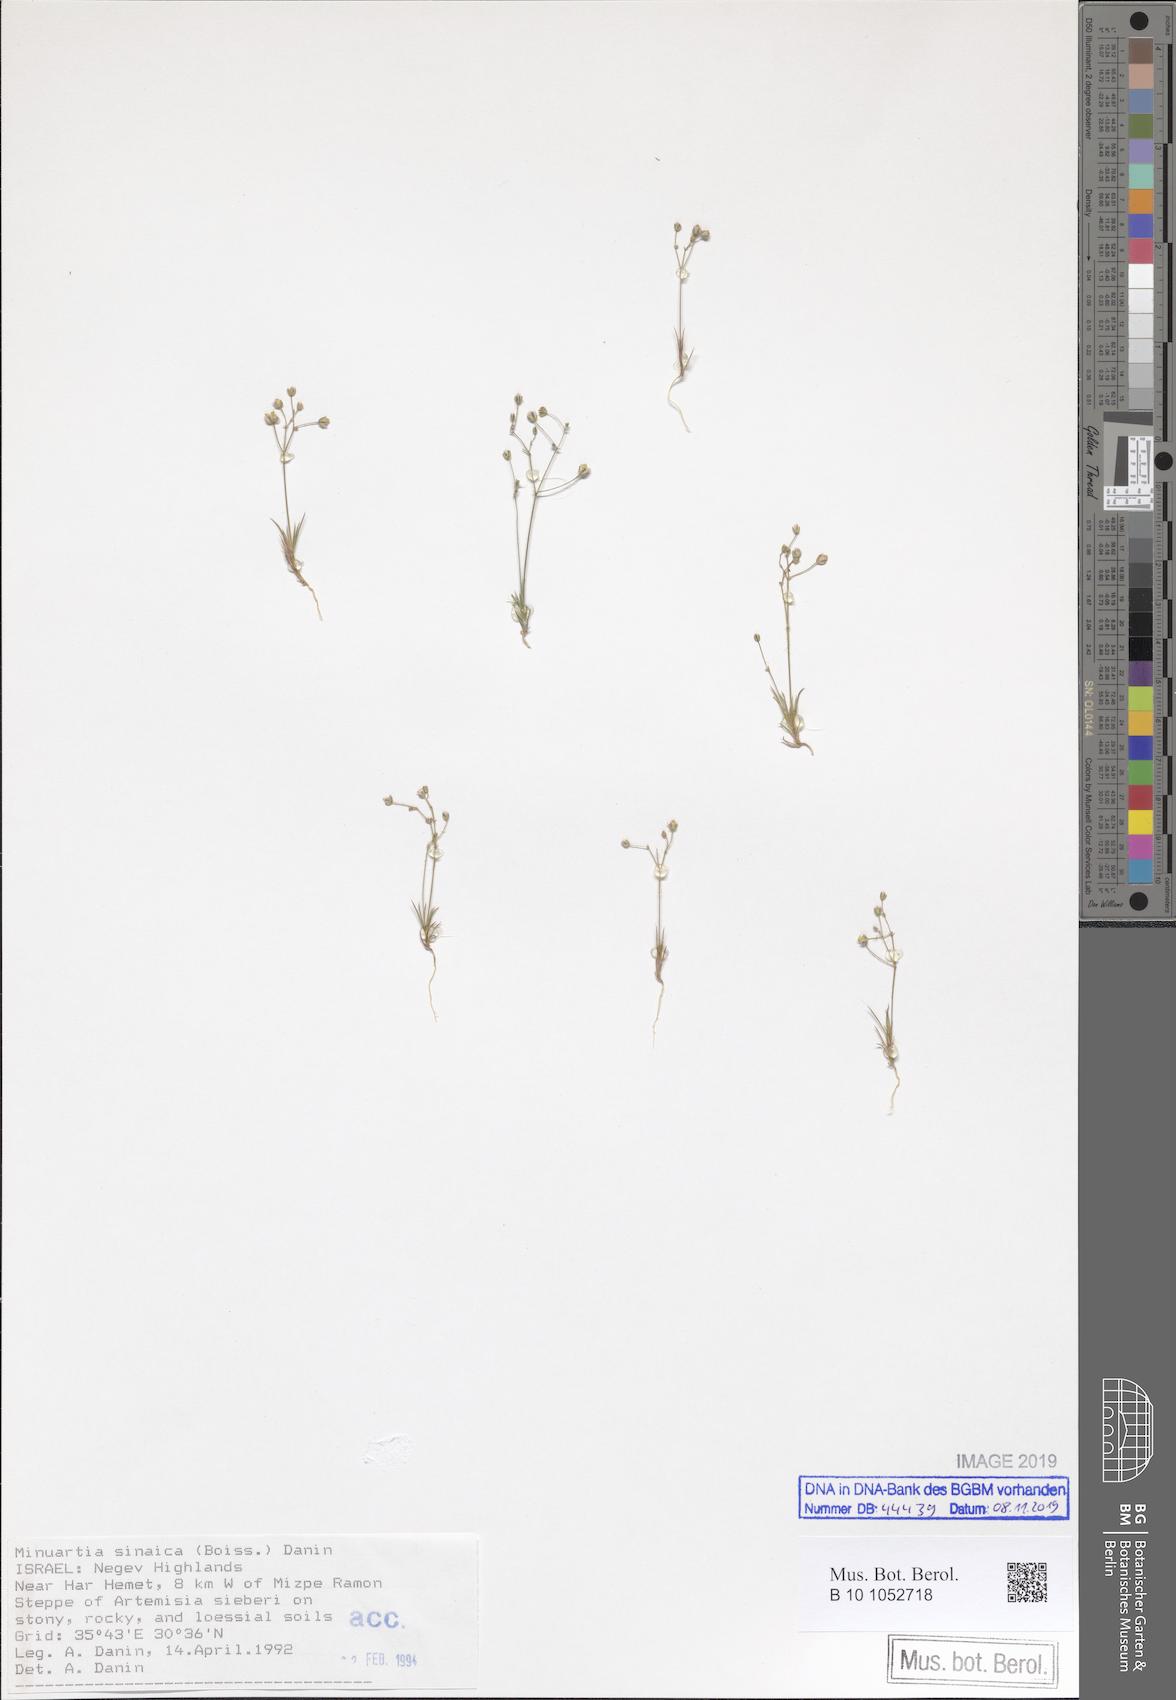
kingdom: Plantae
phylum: Tracheophyta
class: Magnoliopsida
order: Caryophyllales
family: Caryophyllaceae
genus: Eremogone
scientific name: Eremogone sinaica
